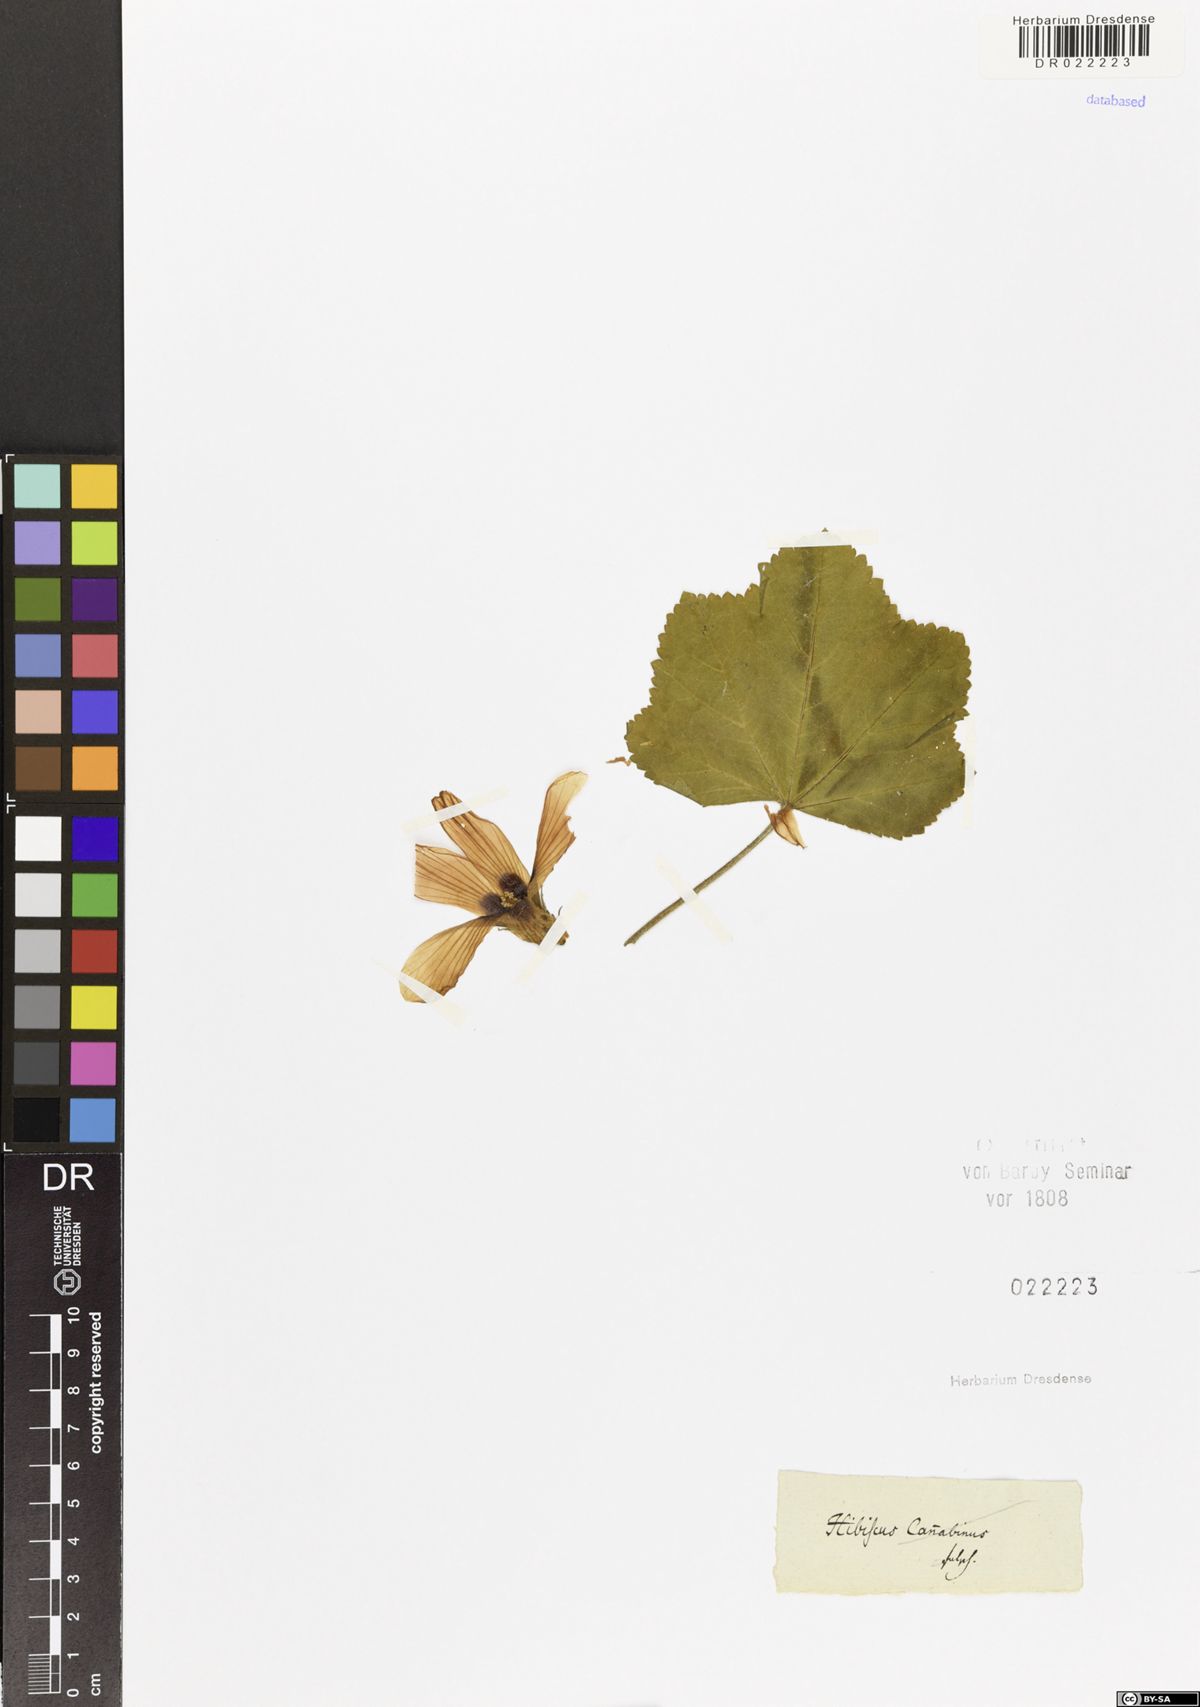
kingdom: Plantae
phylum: Tracheophyta
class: Magnoliopsida
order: Malvales
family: Malvaceae
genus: Hibiscus
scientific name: Hibiscus
